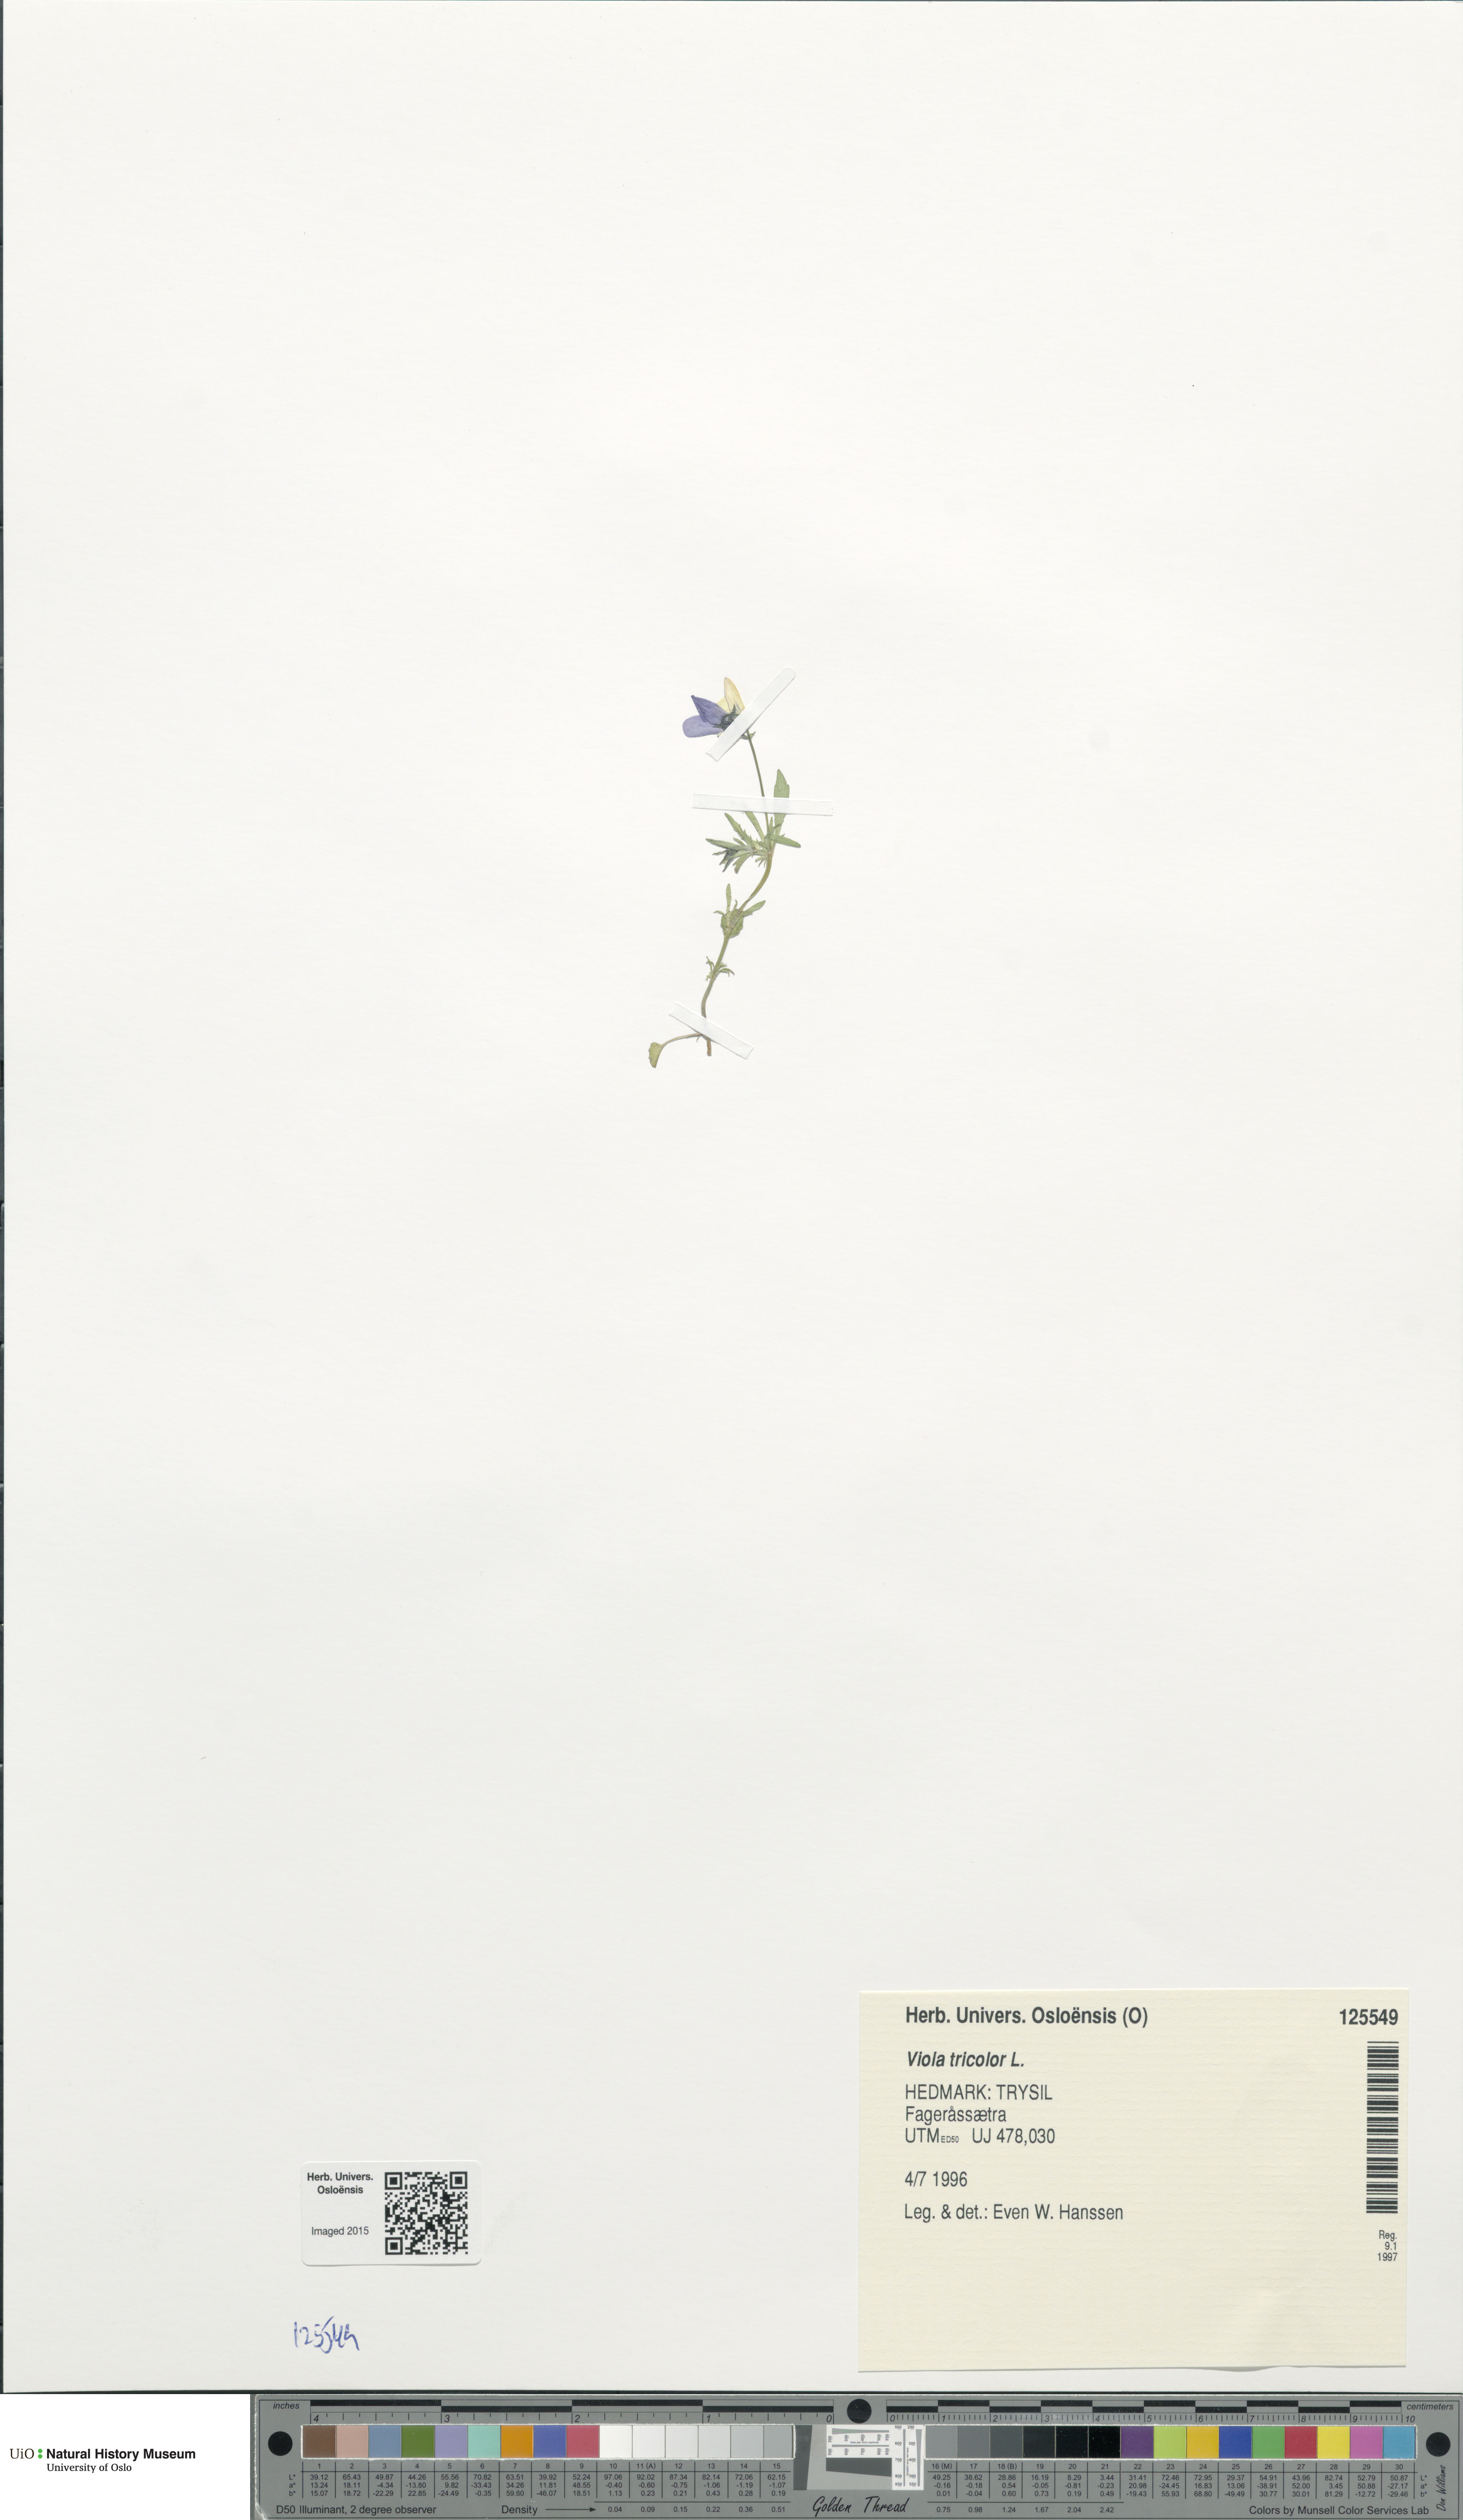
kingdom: Plantae
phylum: Tracheophyta
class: Magnoliopsida
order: Malpighiales
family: Violaceae
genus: Viola
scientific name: Viola tricolor
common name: Pansy
